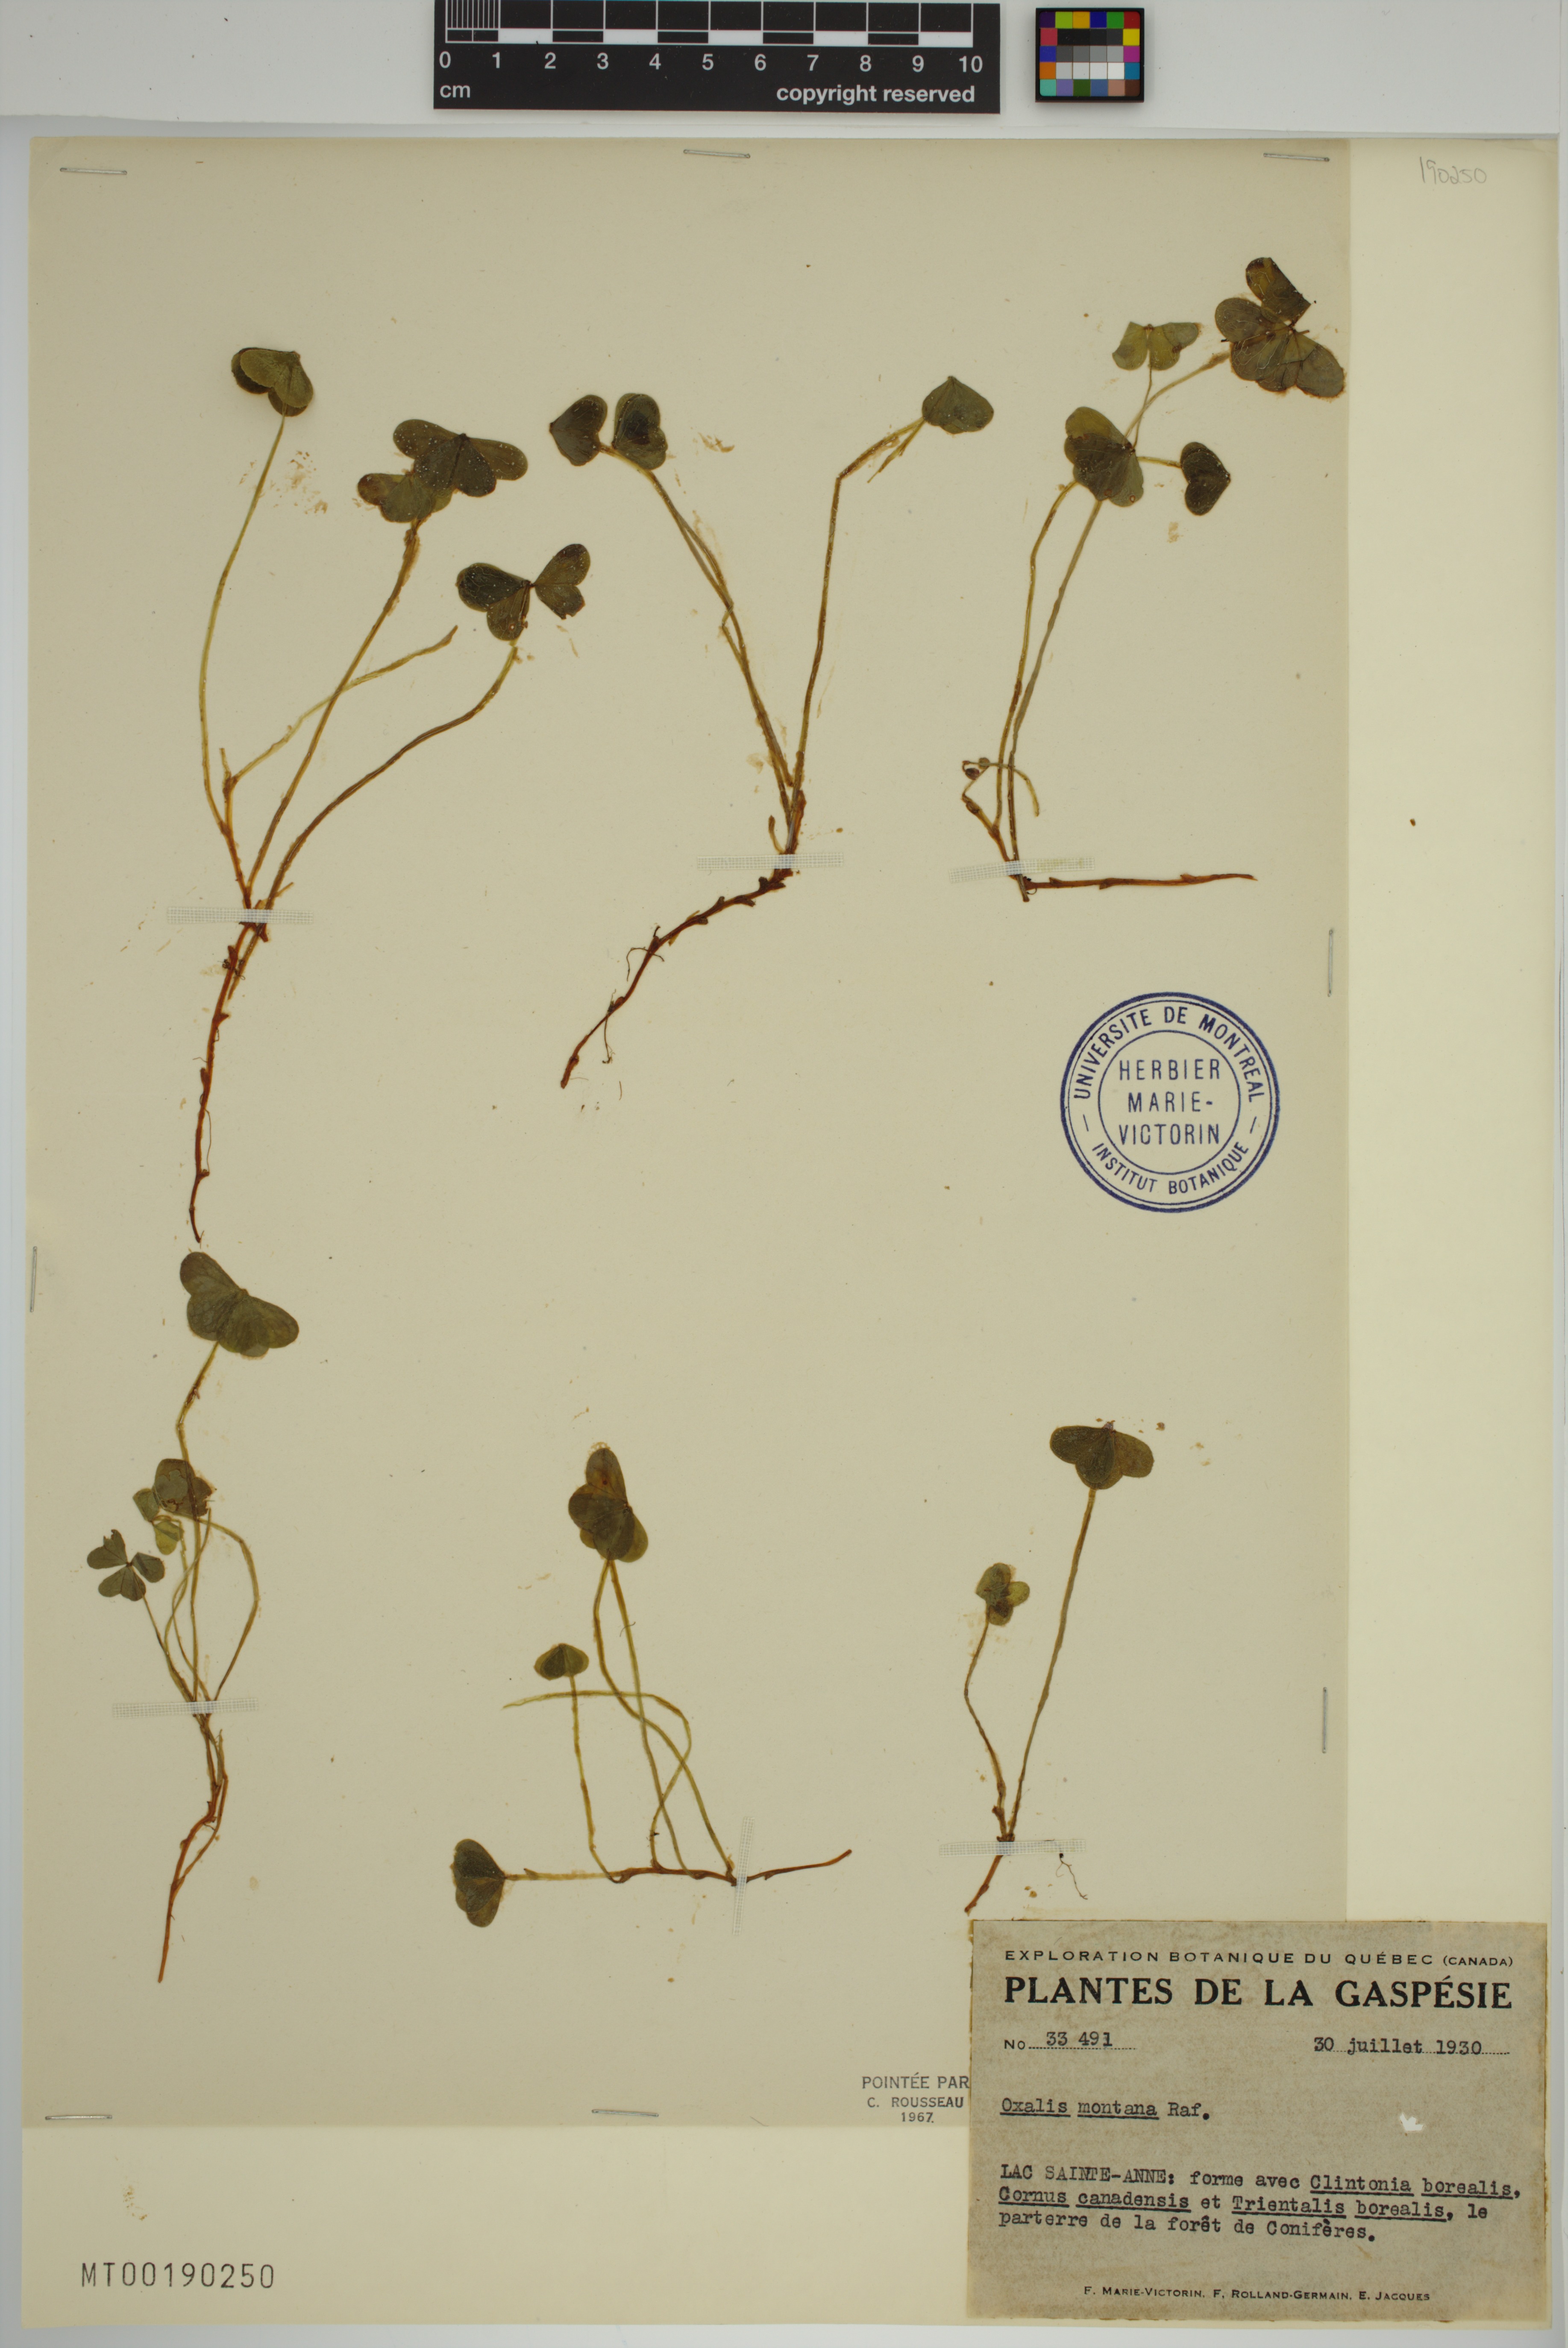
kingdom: Plantae
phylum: Tracheophyta
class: Magnoliopsida
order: Oxalidales
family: Oxalidaceae
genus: Oxalis
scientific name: Oxalis montana
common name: American wood-sorrel
